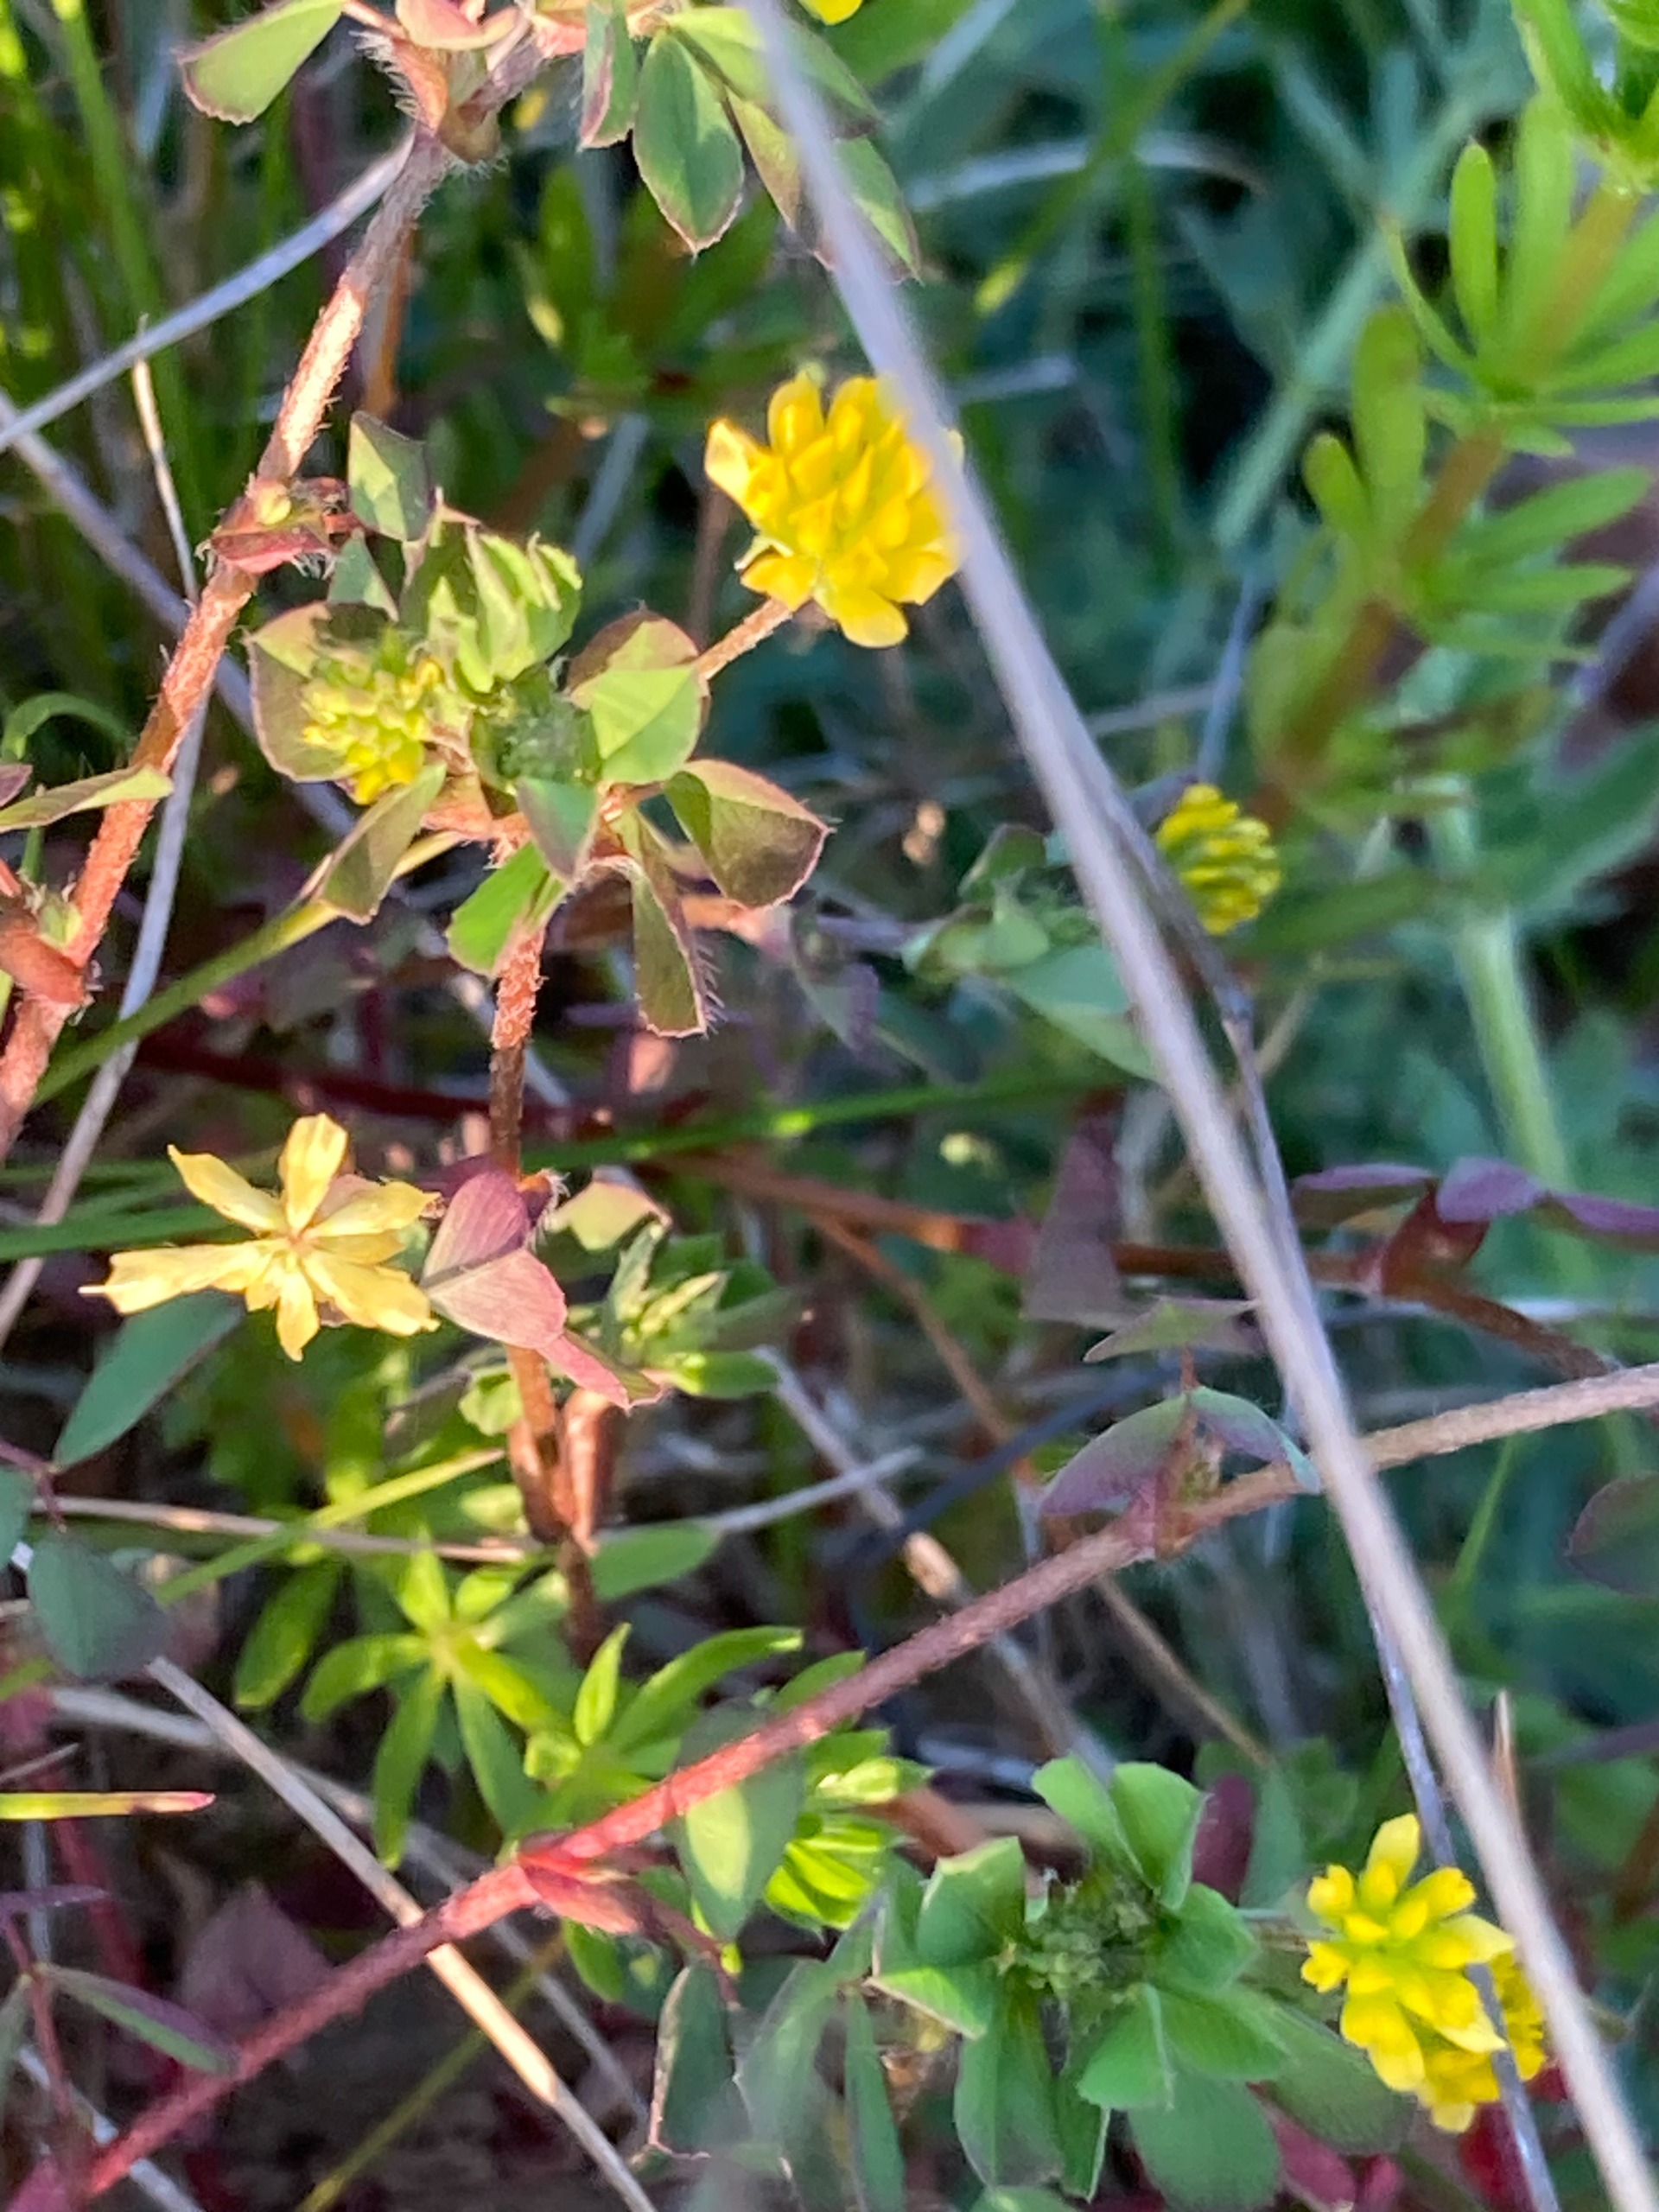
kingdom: Plantae
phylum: Tracheophyta
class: Magnoliopsida
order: Fabales
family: Fabaceae
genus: Trifolium
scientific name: Trifolium dubium
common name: Fin kløver
